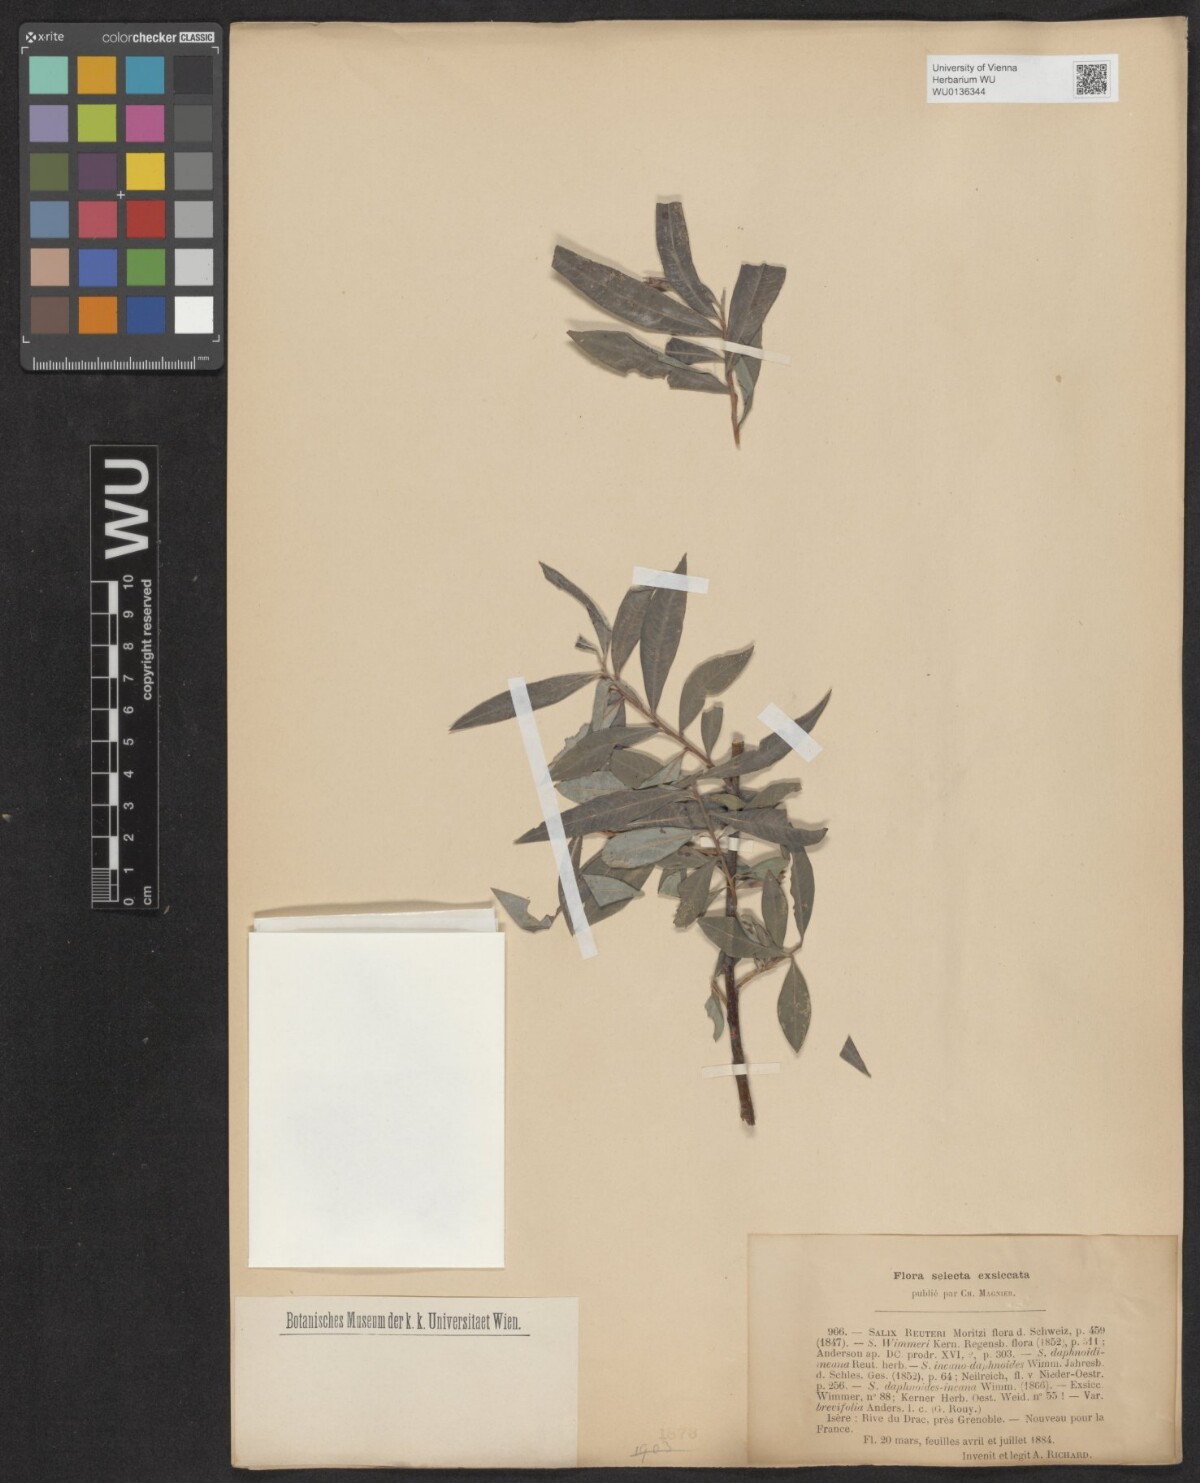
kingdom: Plantae
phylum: Tracheophyta
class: Magnoliopsida
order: Malpighiales
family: Salicaceae
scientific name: Salicaceae
